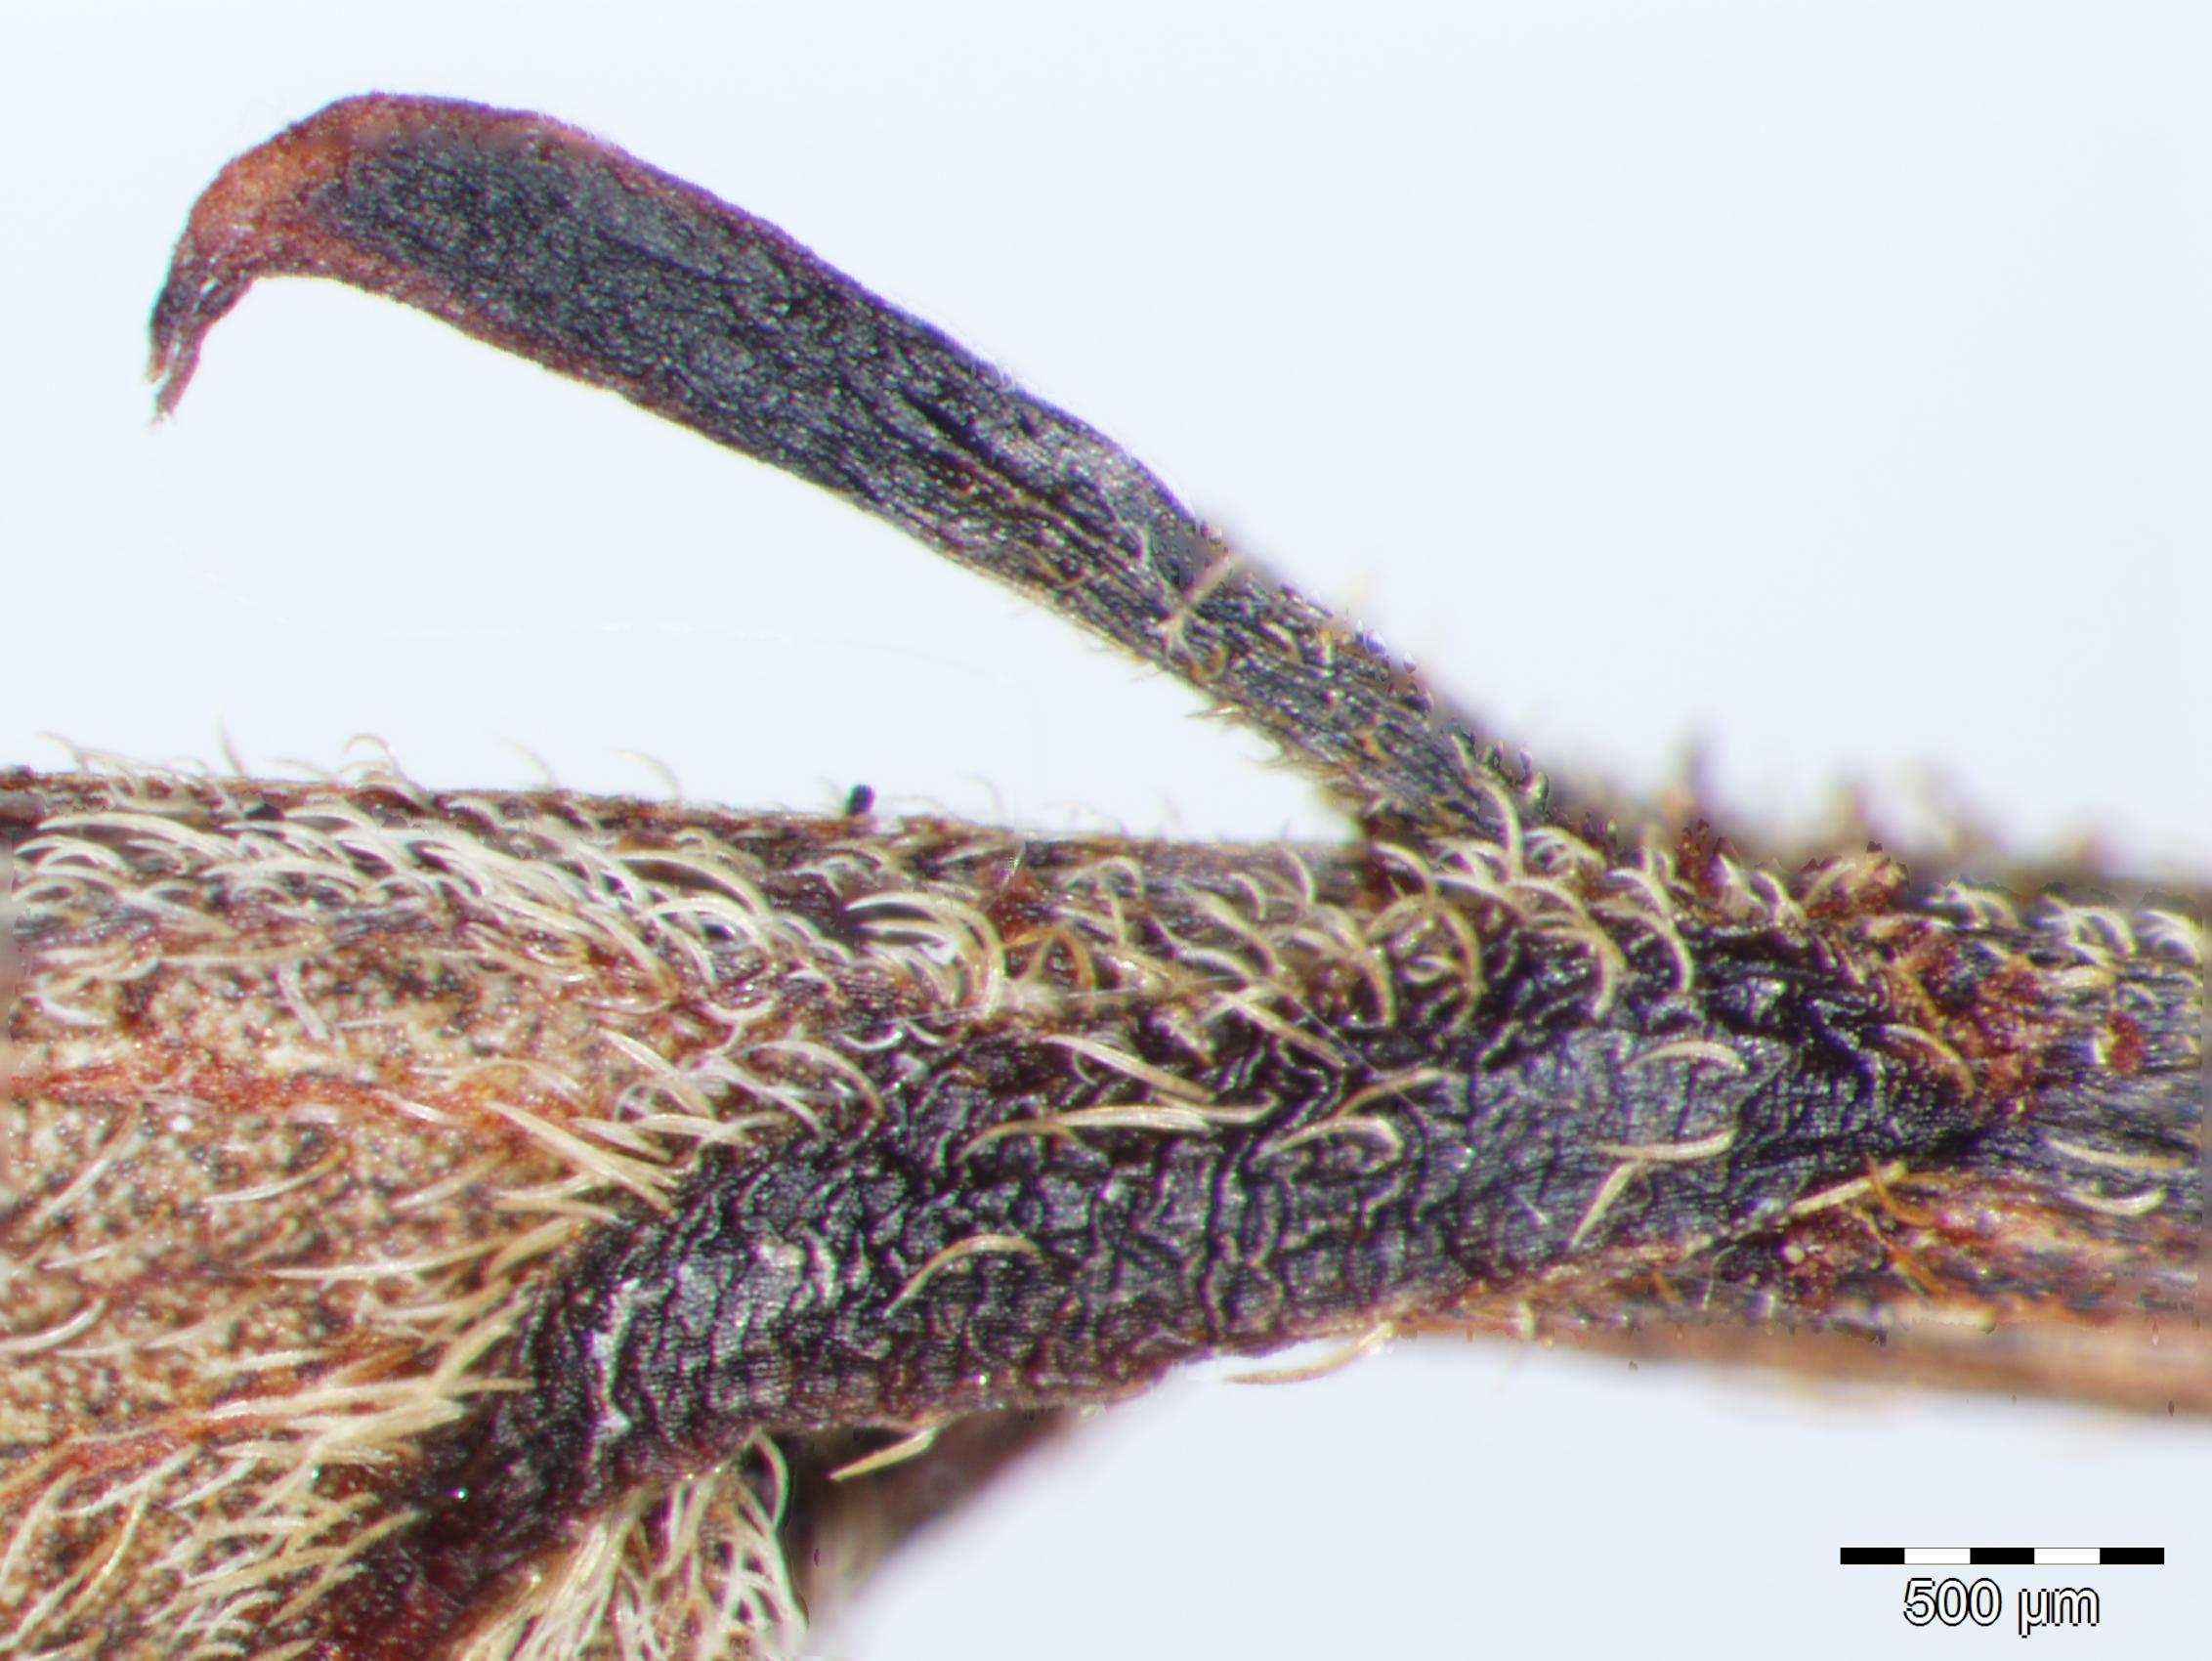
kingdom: Plantae
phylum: Tracheophyta
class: Magnoliopsida
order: Fabales
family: Fabaceae
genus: Senna
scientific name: Senna robiniifolia
